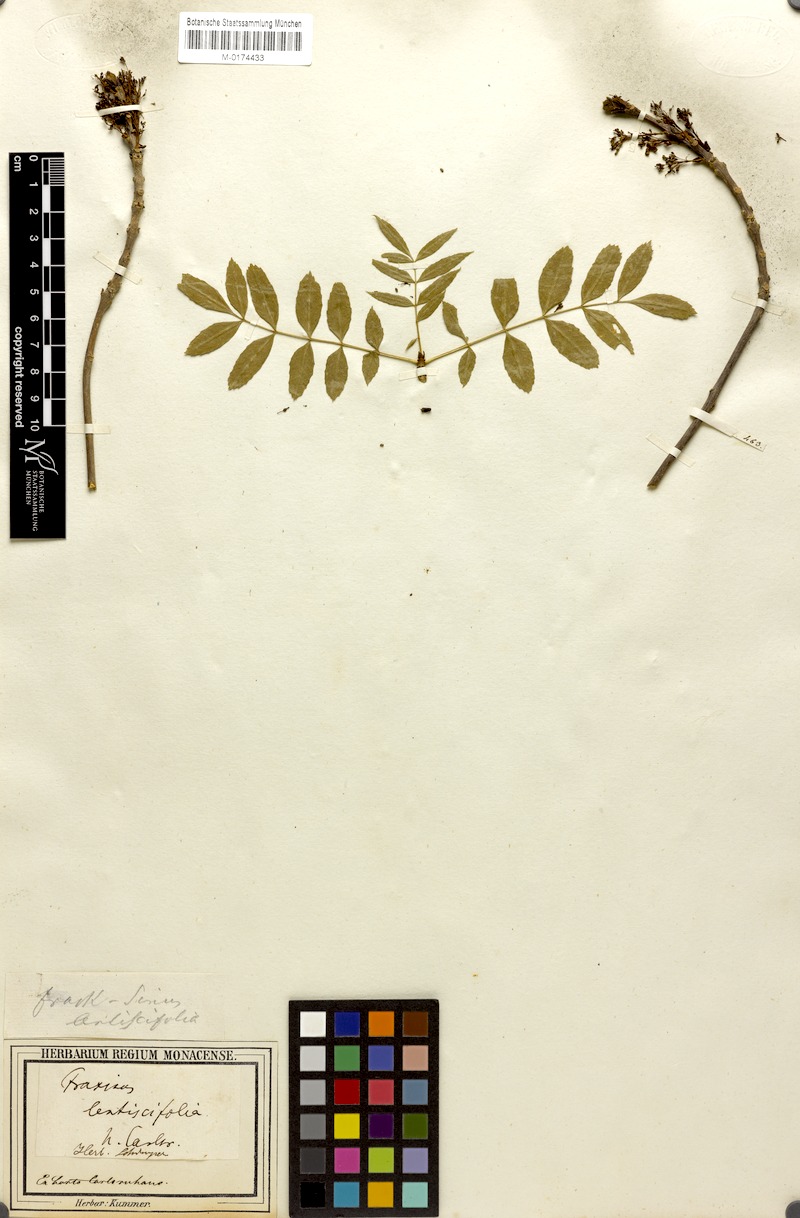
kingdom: Plantae
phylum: Tracheophyta
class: Magnoliopsida
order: Lamiales
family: Oleaceae
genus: Fraxinus
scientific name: Fraxinus angustifolia
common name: Narrow-leafed ash
